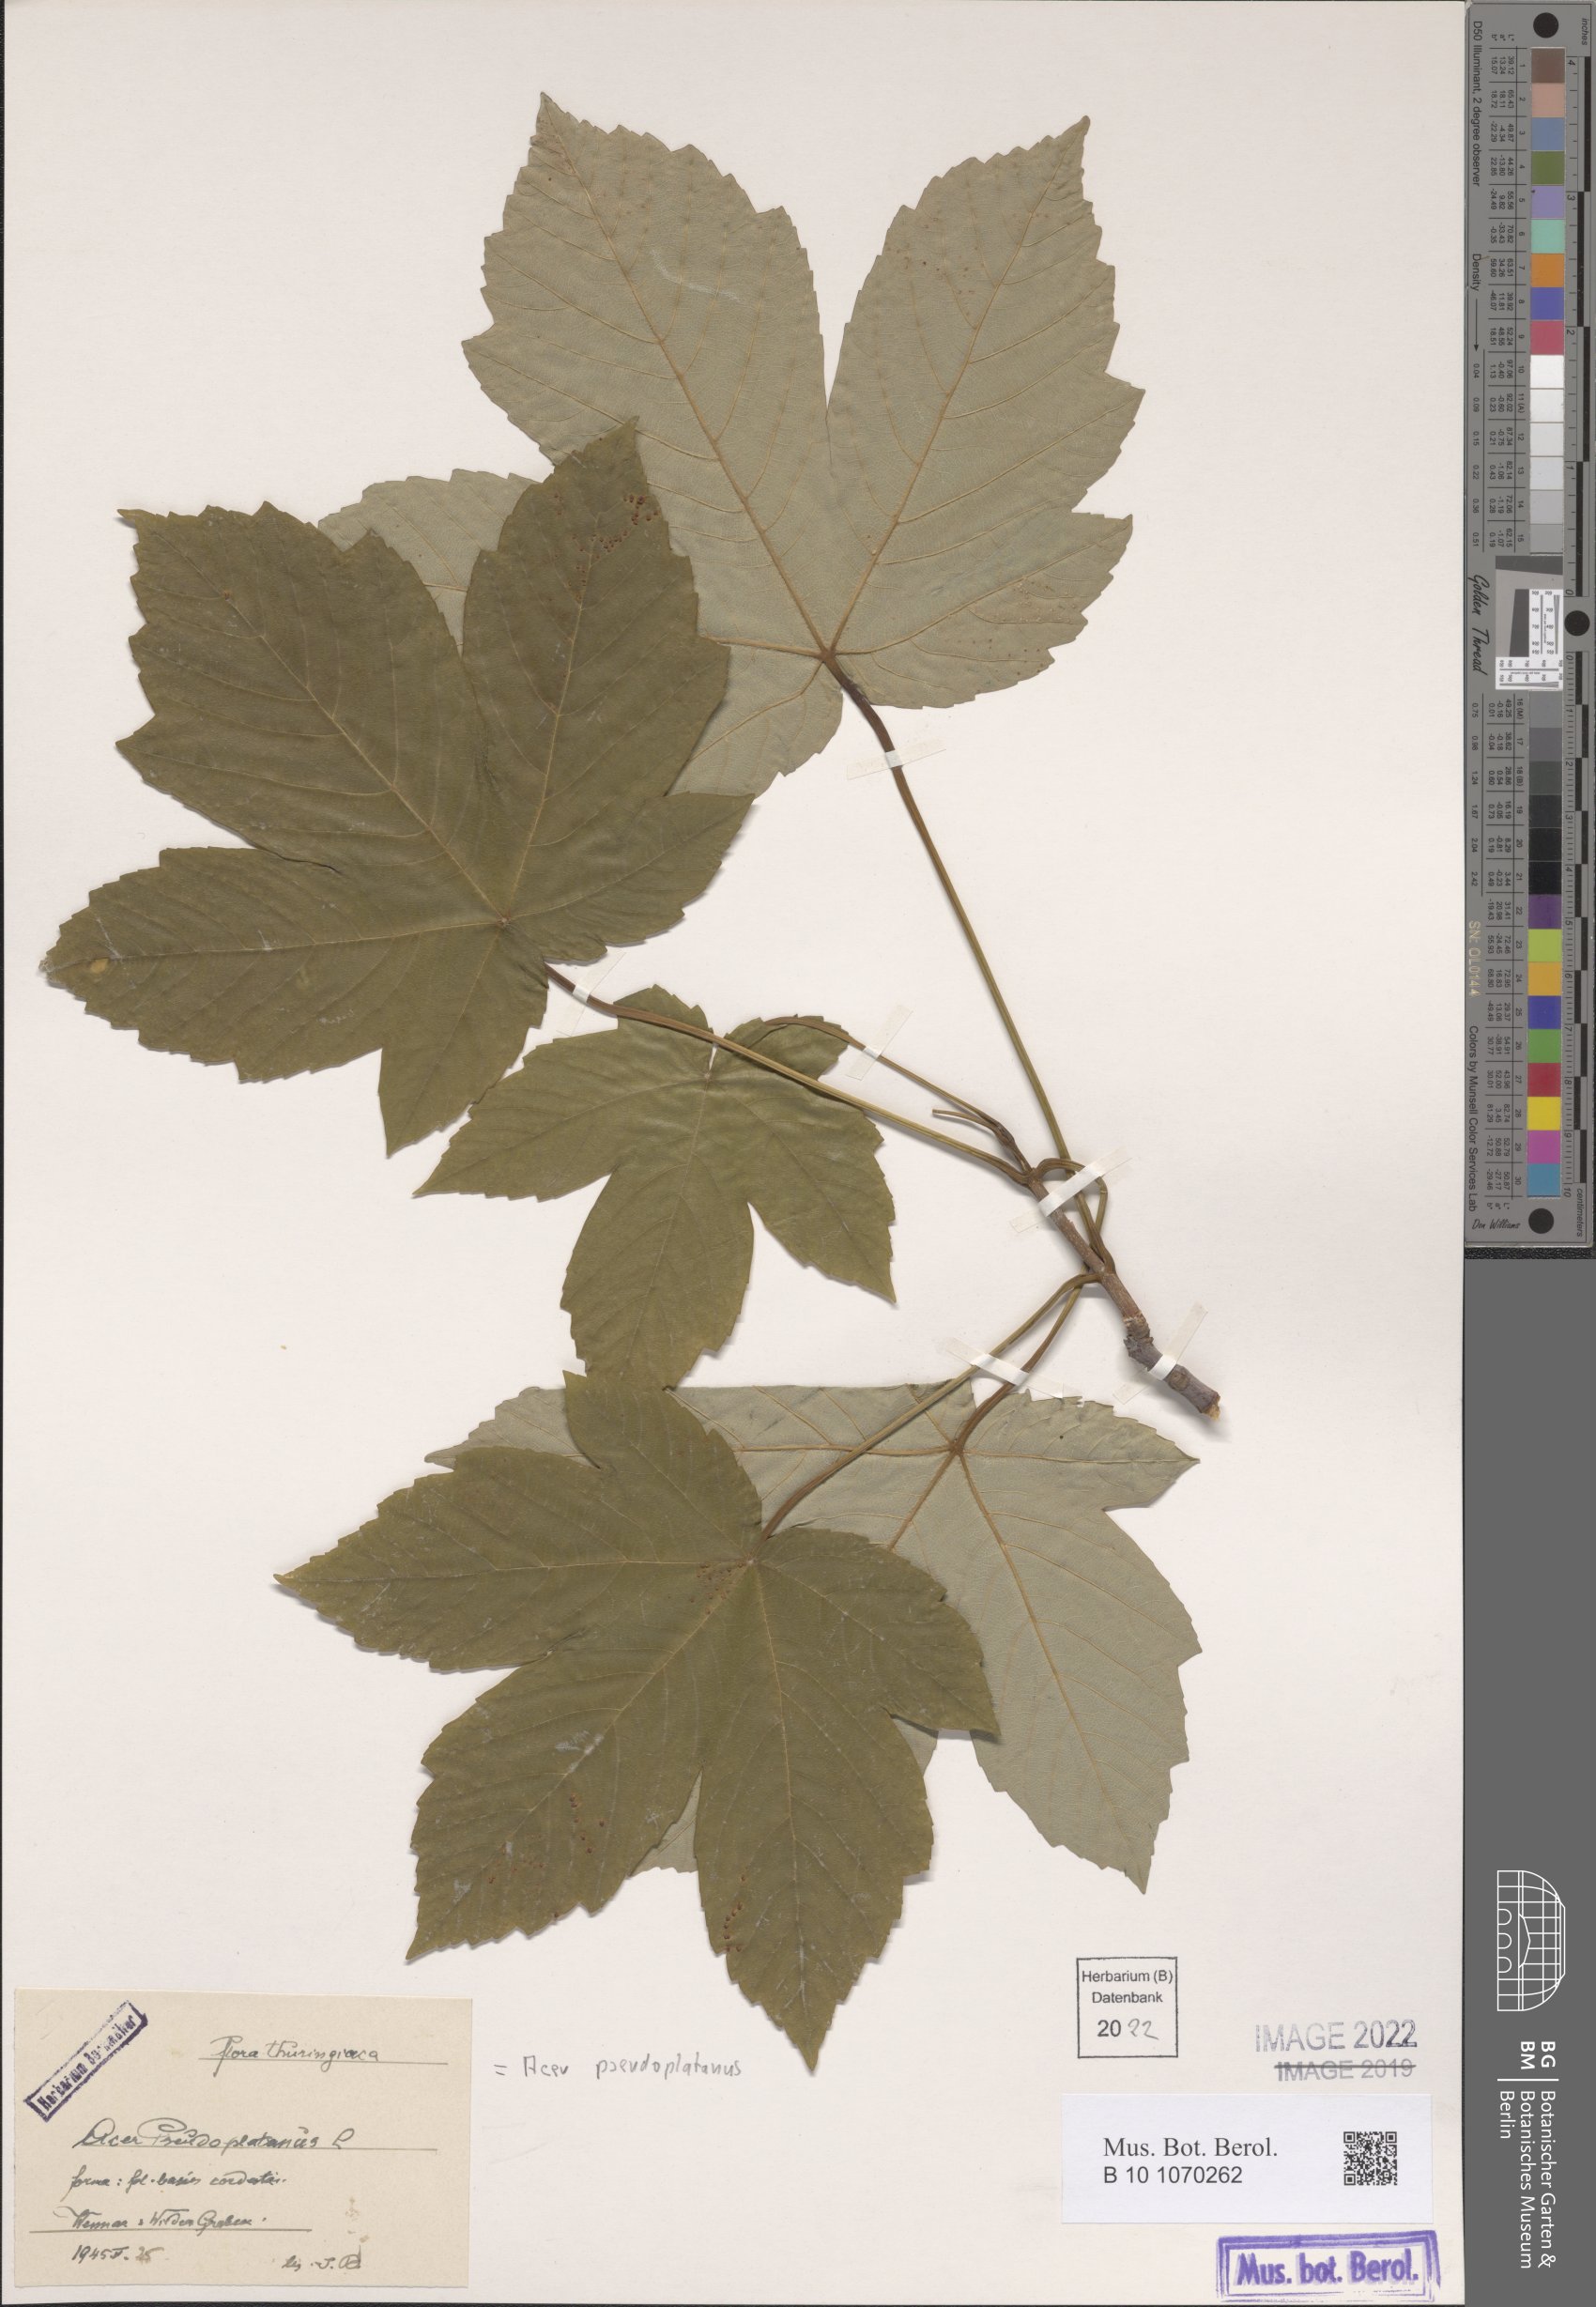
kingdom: Plantae
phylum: Tracheophyta
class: Magnoliopsida
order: Sapindales
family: Sapindaceae
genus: Acer
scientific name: Acer pseudoplatanus
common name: Sycamore
